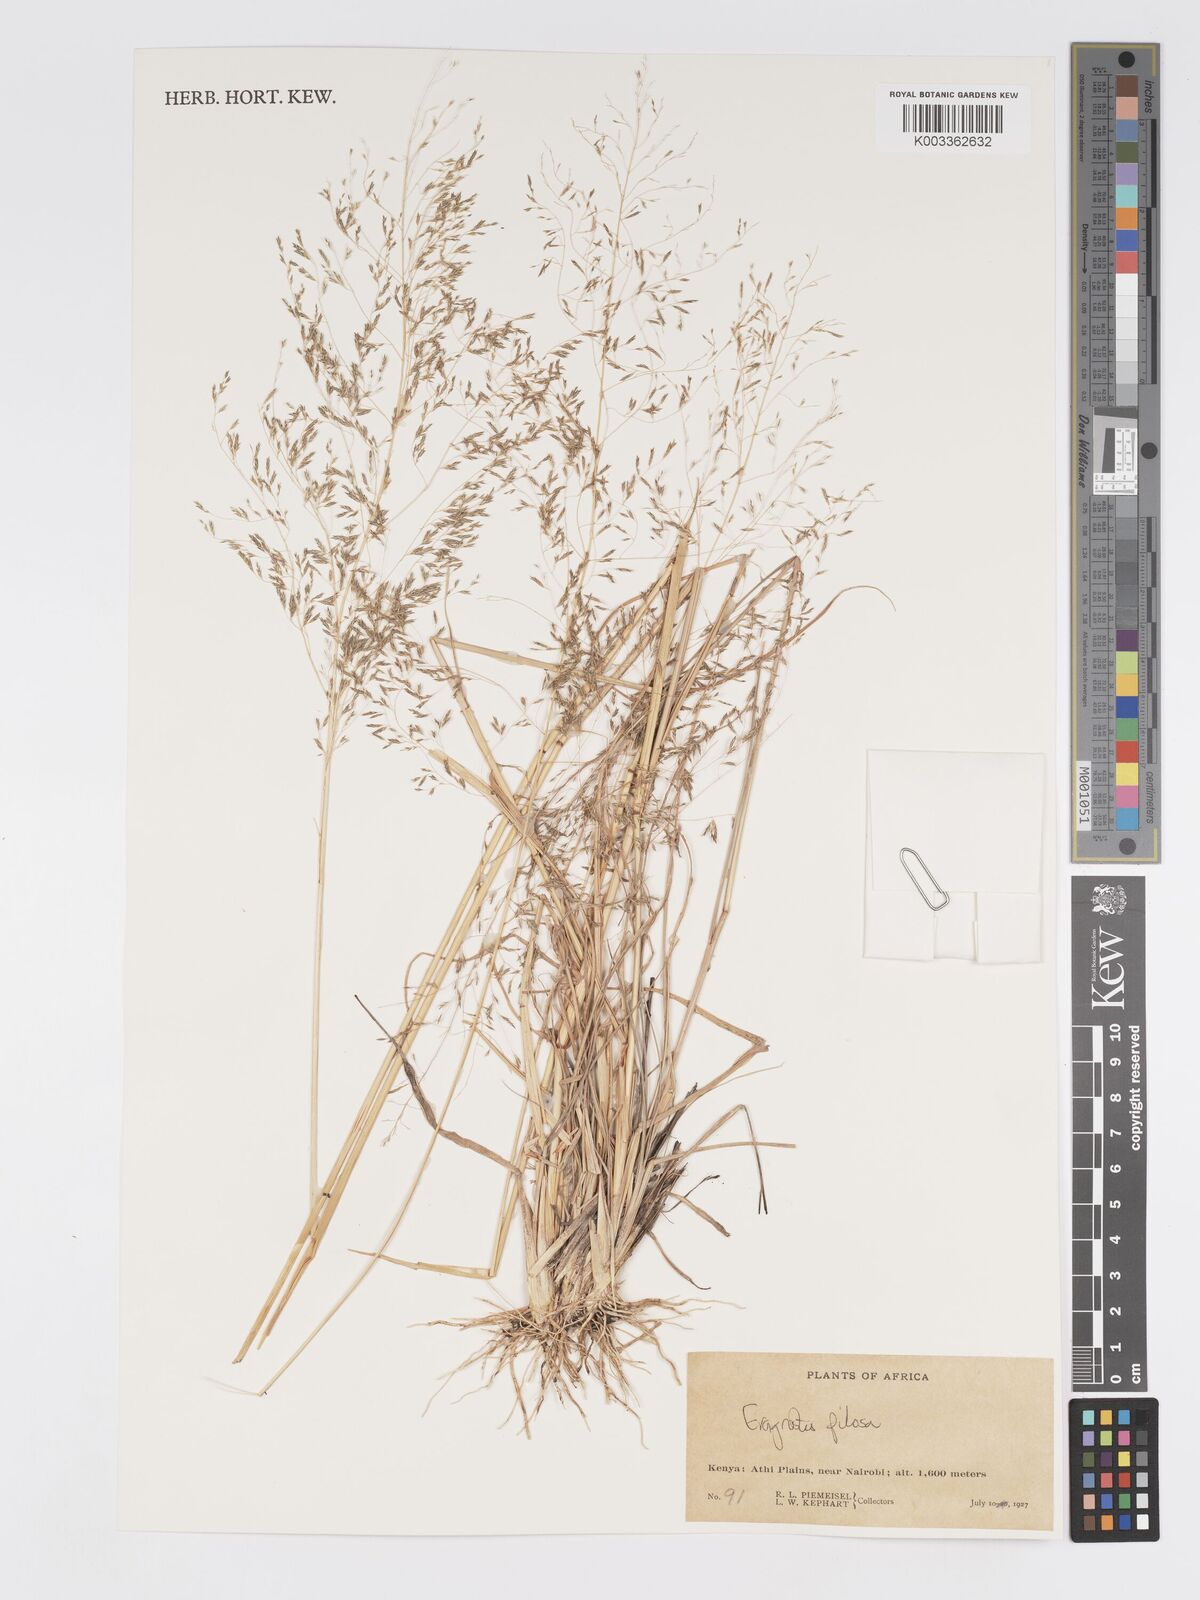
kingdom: Plantae
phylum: Tracheophyta
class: Liliopsida
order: Poales
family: Poaceae
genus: Eragrostis
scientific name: Eragrostis
